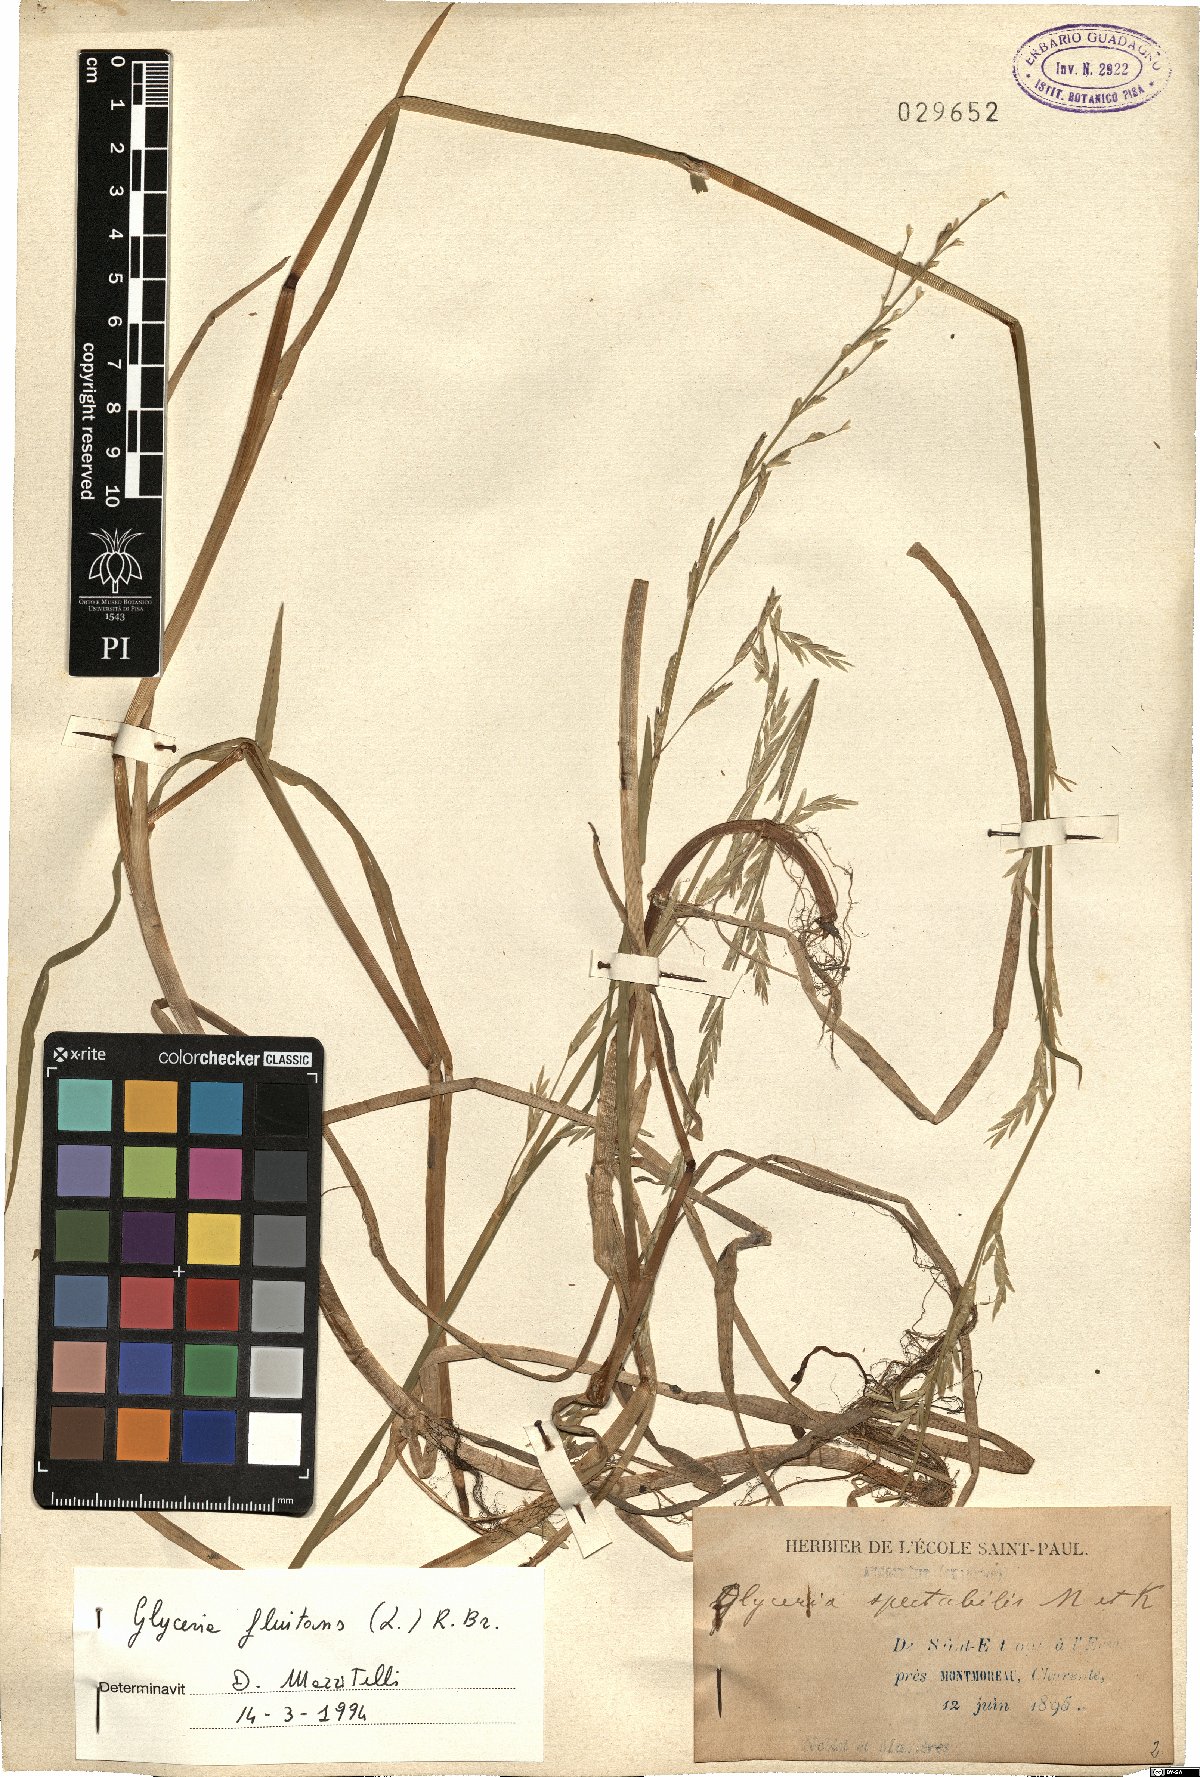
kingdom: Plantae
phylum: Tracheophyta
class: Liliopsida
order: Poales
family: Poaceae
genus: Glyceria
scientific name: Glyceria fluitans
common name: Floating sweet-grass
